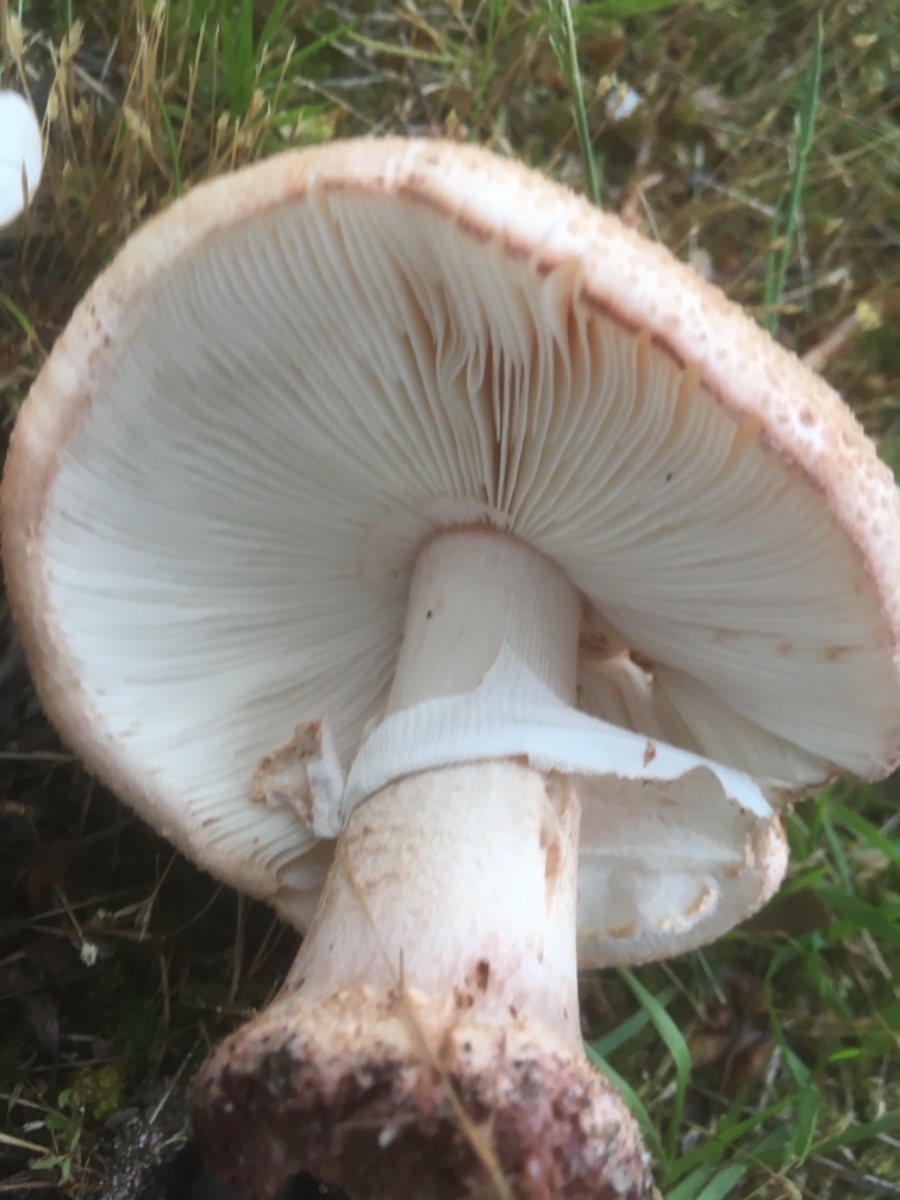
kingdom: Fungi
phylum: Basidiomycota
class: Agaricomycetes
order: Agaricales
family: Amanitaceae
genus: Amanita
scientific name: Amanita rubescens
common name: rødmende fluesvamp
